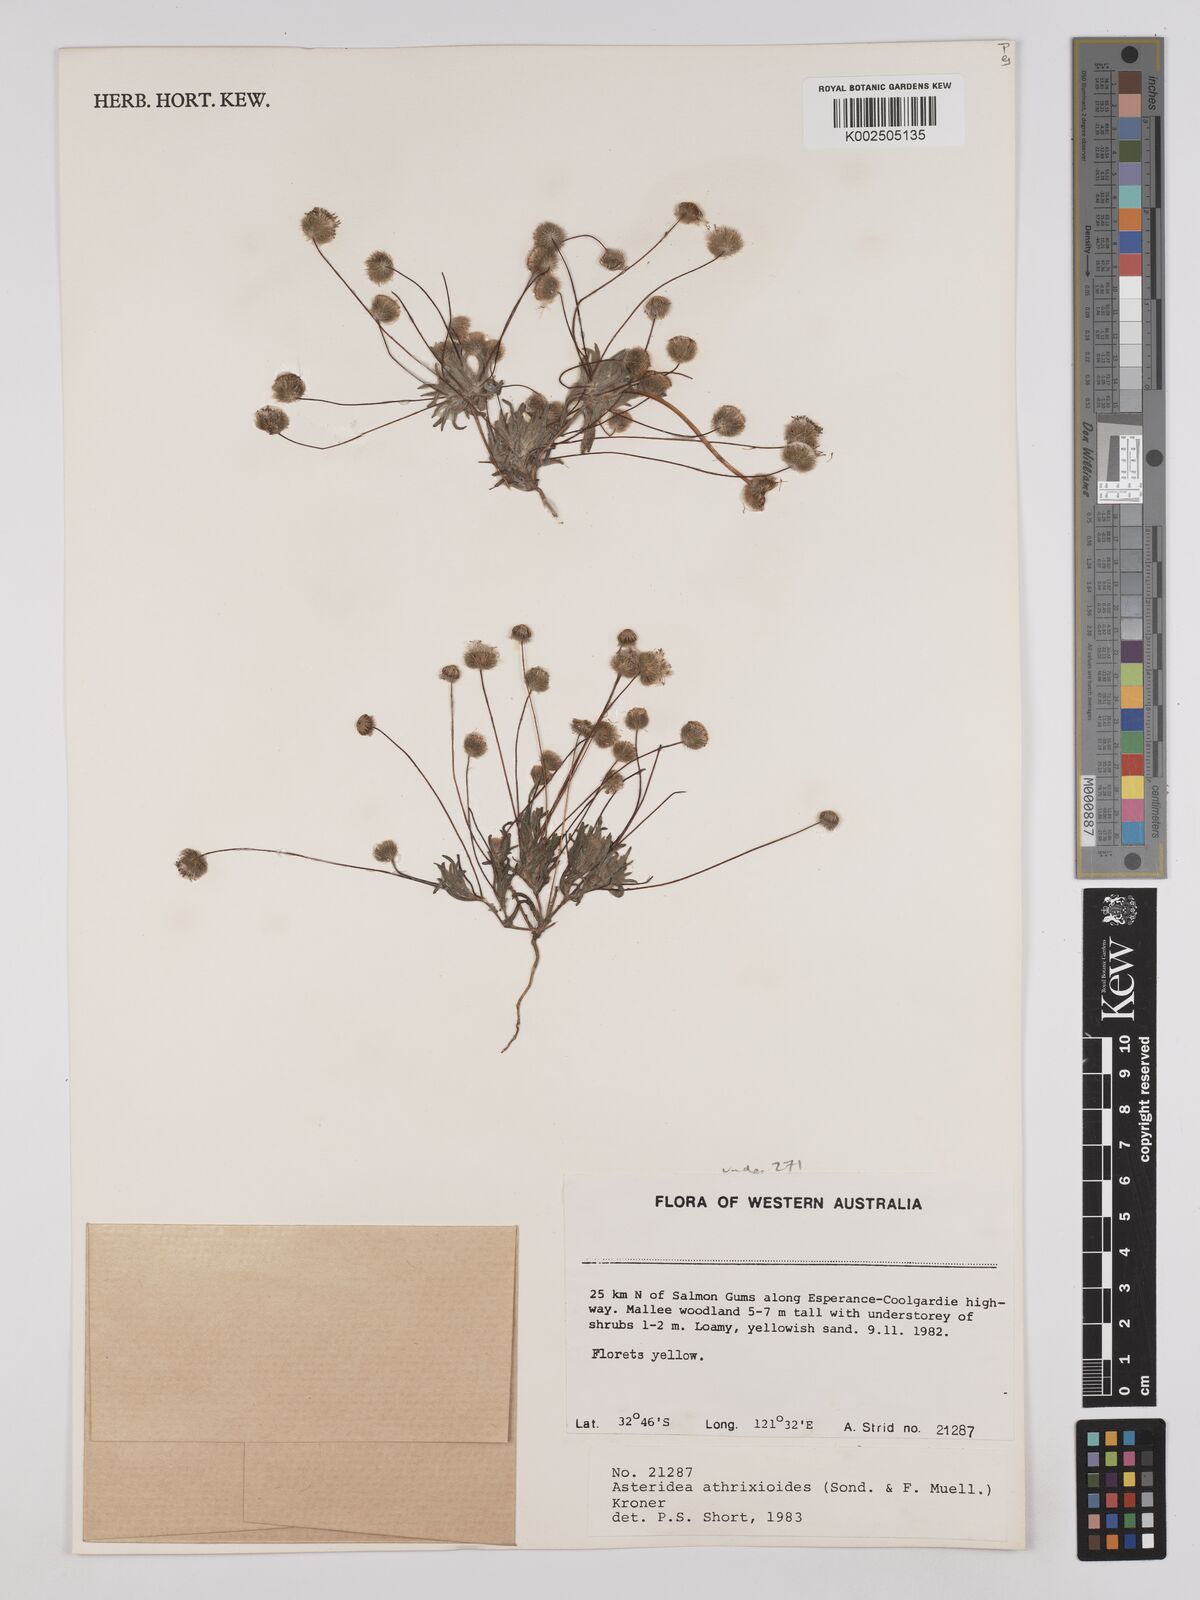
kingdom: Plantae
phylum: Tracheophyta
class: Magnoliopsida
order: Asterales
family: Asteraceae
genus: Asteridea
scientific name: Asteridea athrixioides
